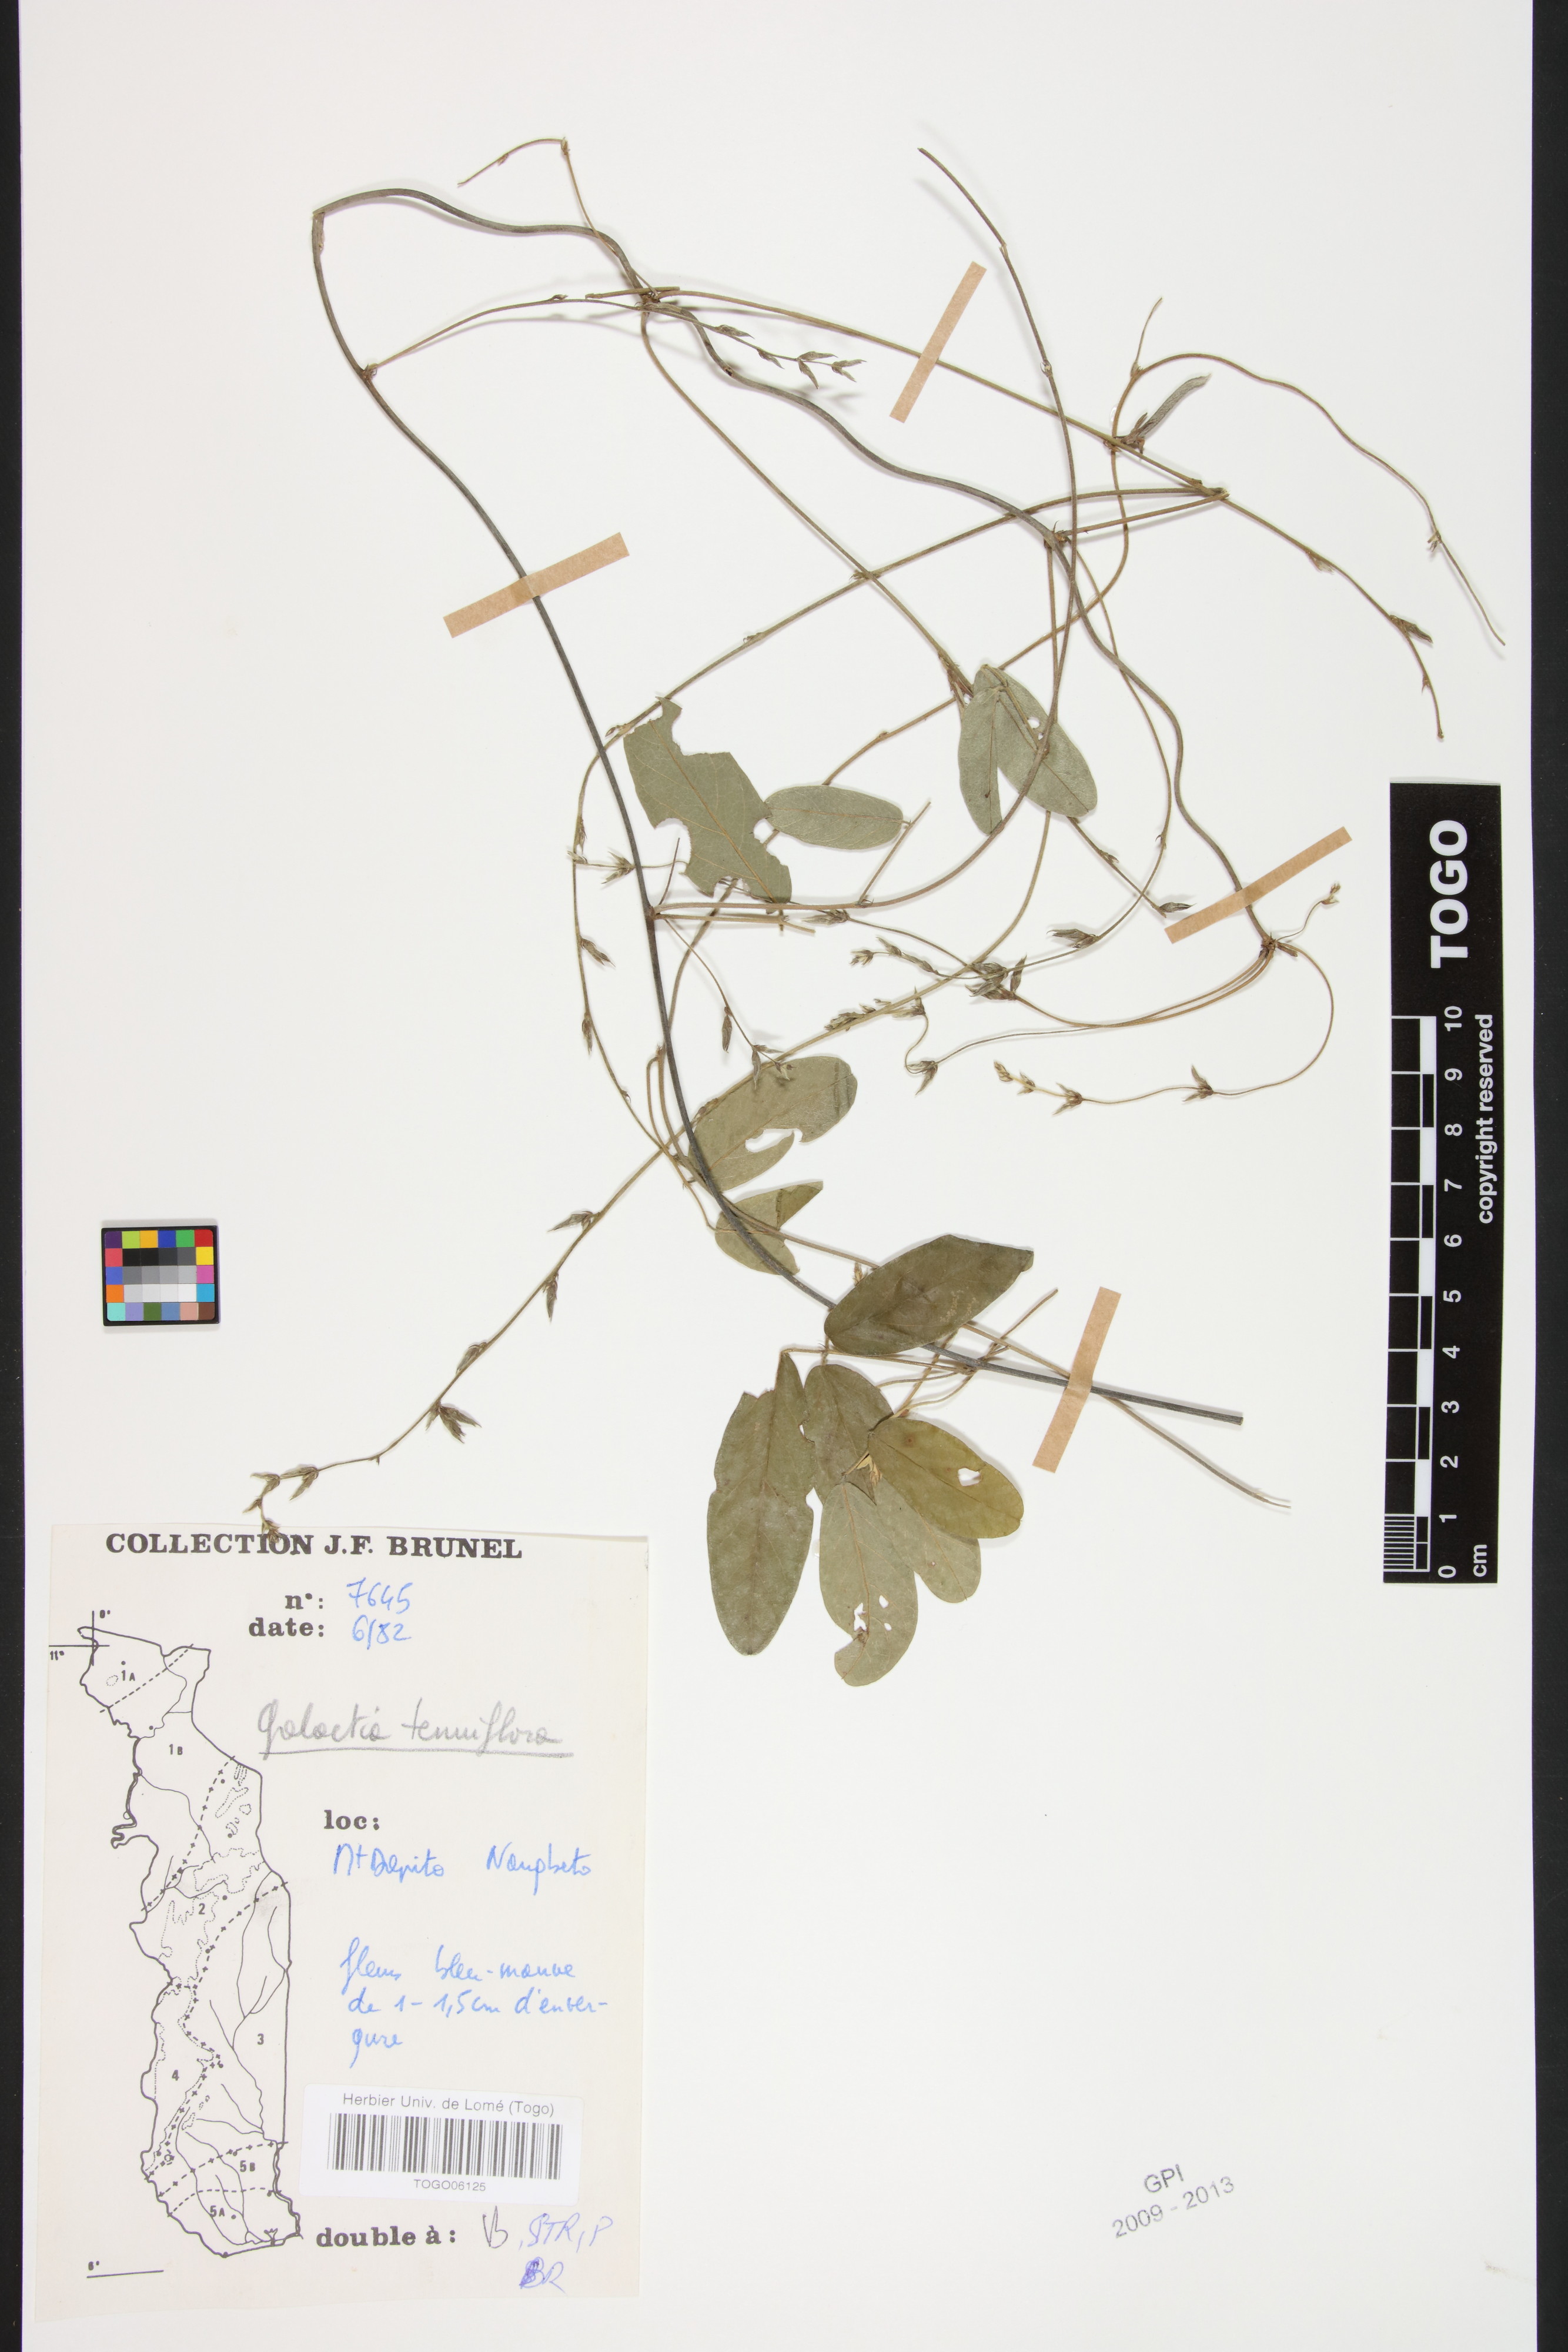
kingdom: Plantae
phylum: Tracheophyta
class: Magnoliopsida
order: Fabales
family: Fabaceae
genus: Galactia
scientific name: Galactia striata
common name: Florida hammock milkpea
